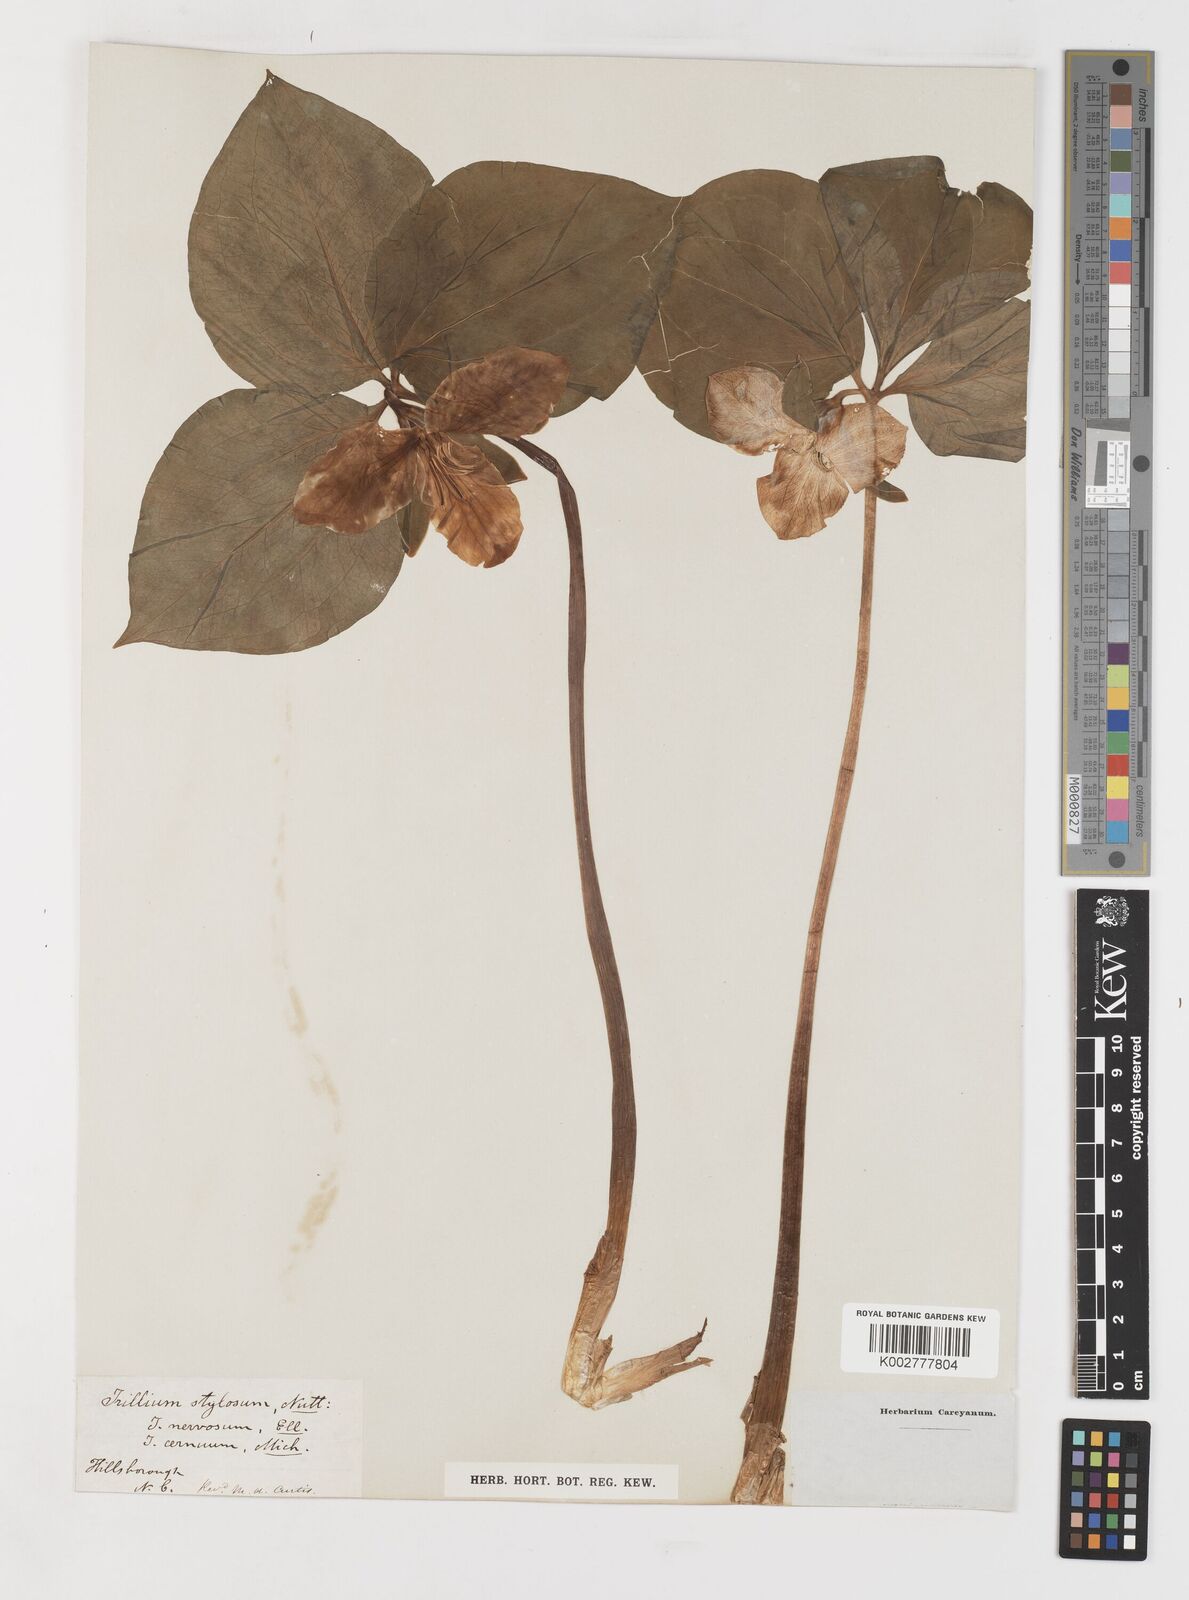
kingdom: Plantae
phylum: Tracheophyta
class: Liliopsida
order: Liliales
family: Melanthiaceae
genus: Trillium
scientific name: Trillium cernuum
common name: Nodding trillium
